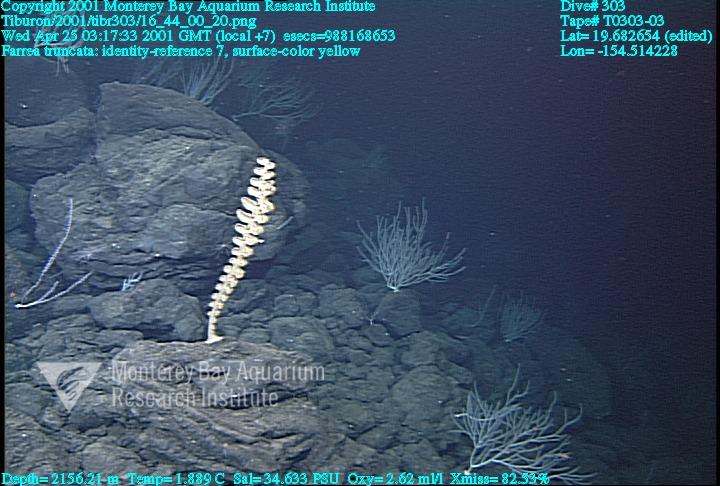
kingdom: Animalia
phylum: Porifera
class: Hexactinellida
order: Sceptrulophora
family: Farreidae
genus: Farrea
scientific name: Farrea truncata
